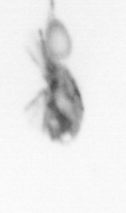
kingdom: Animalia
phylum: Arthropoda
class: Copepoda
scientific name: Copepoda
